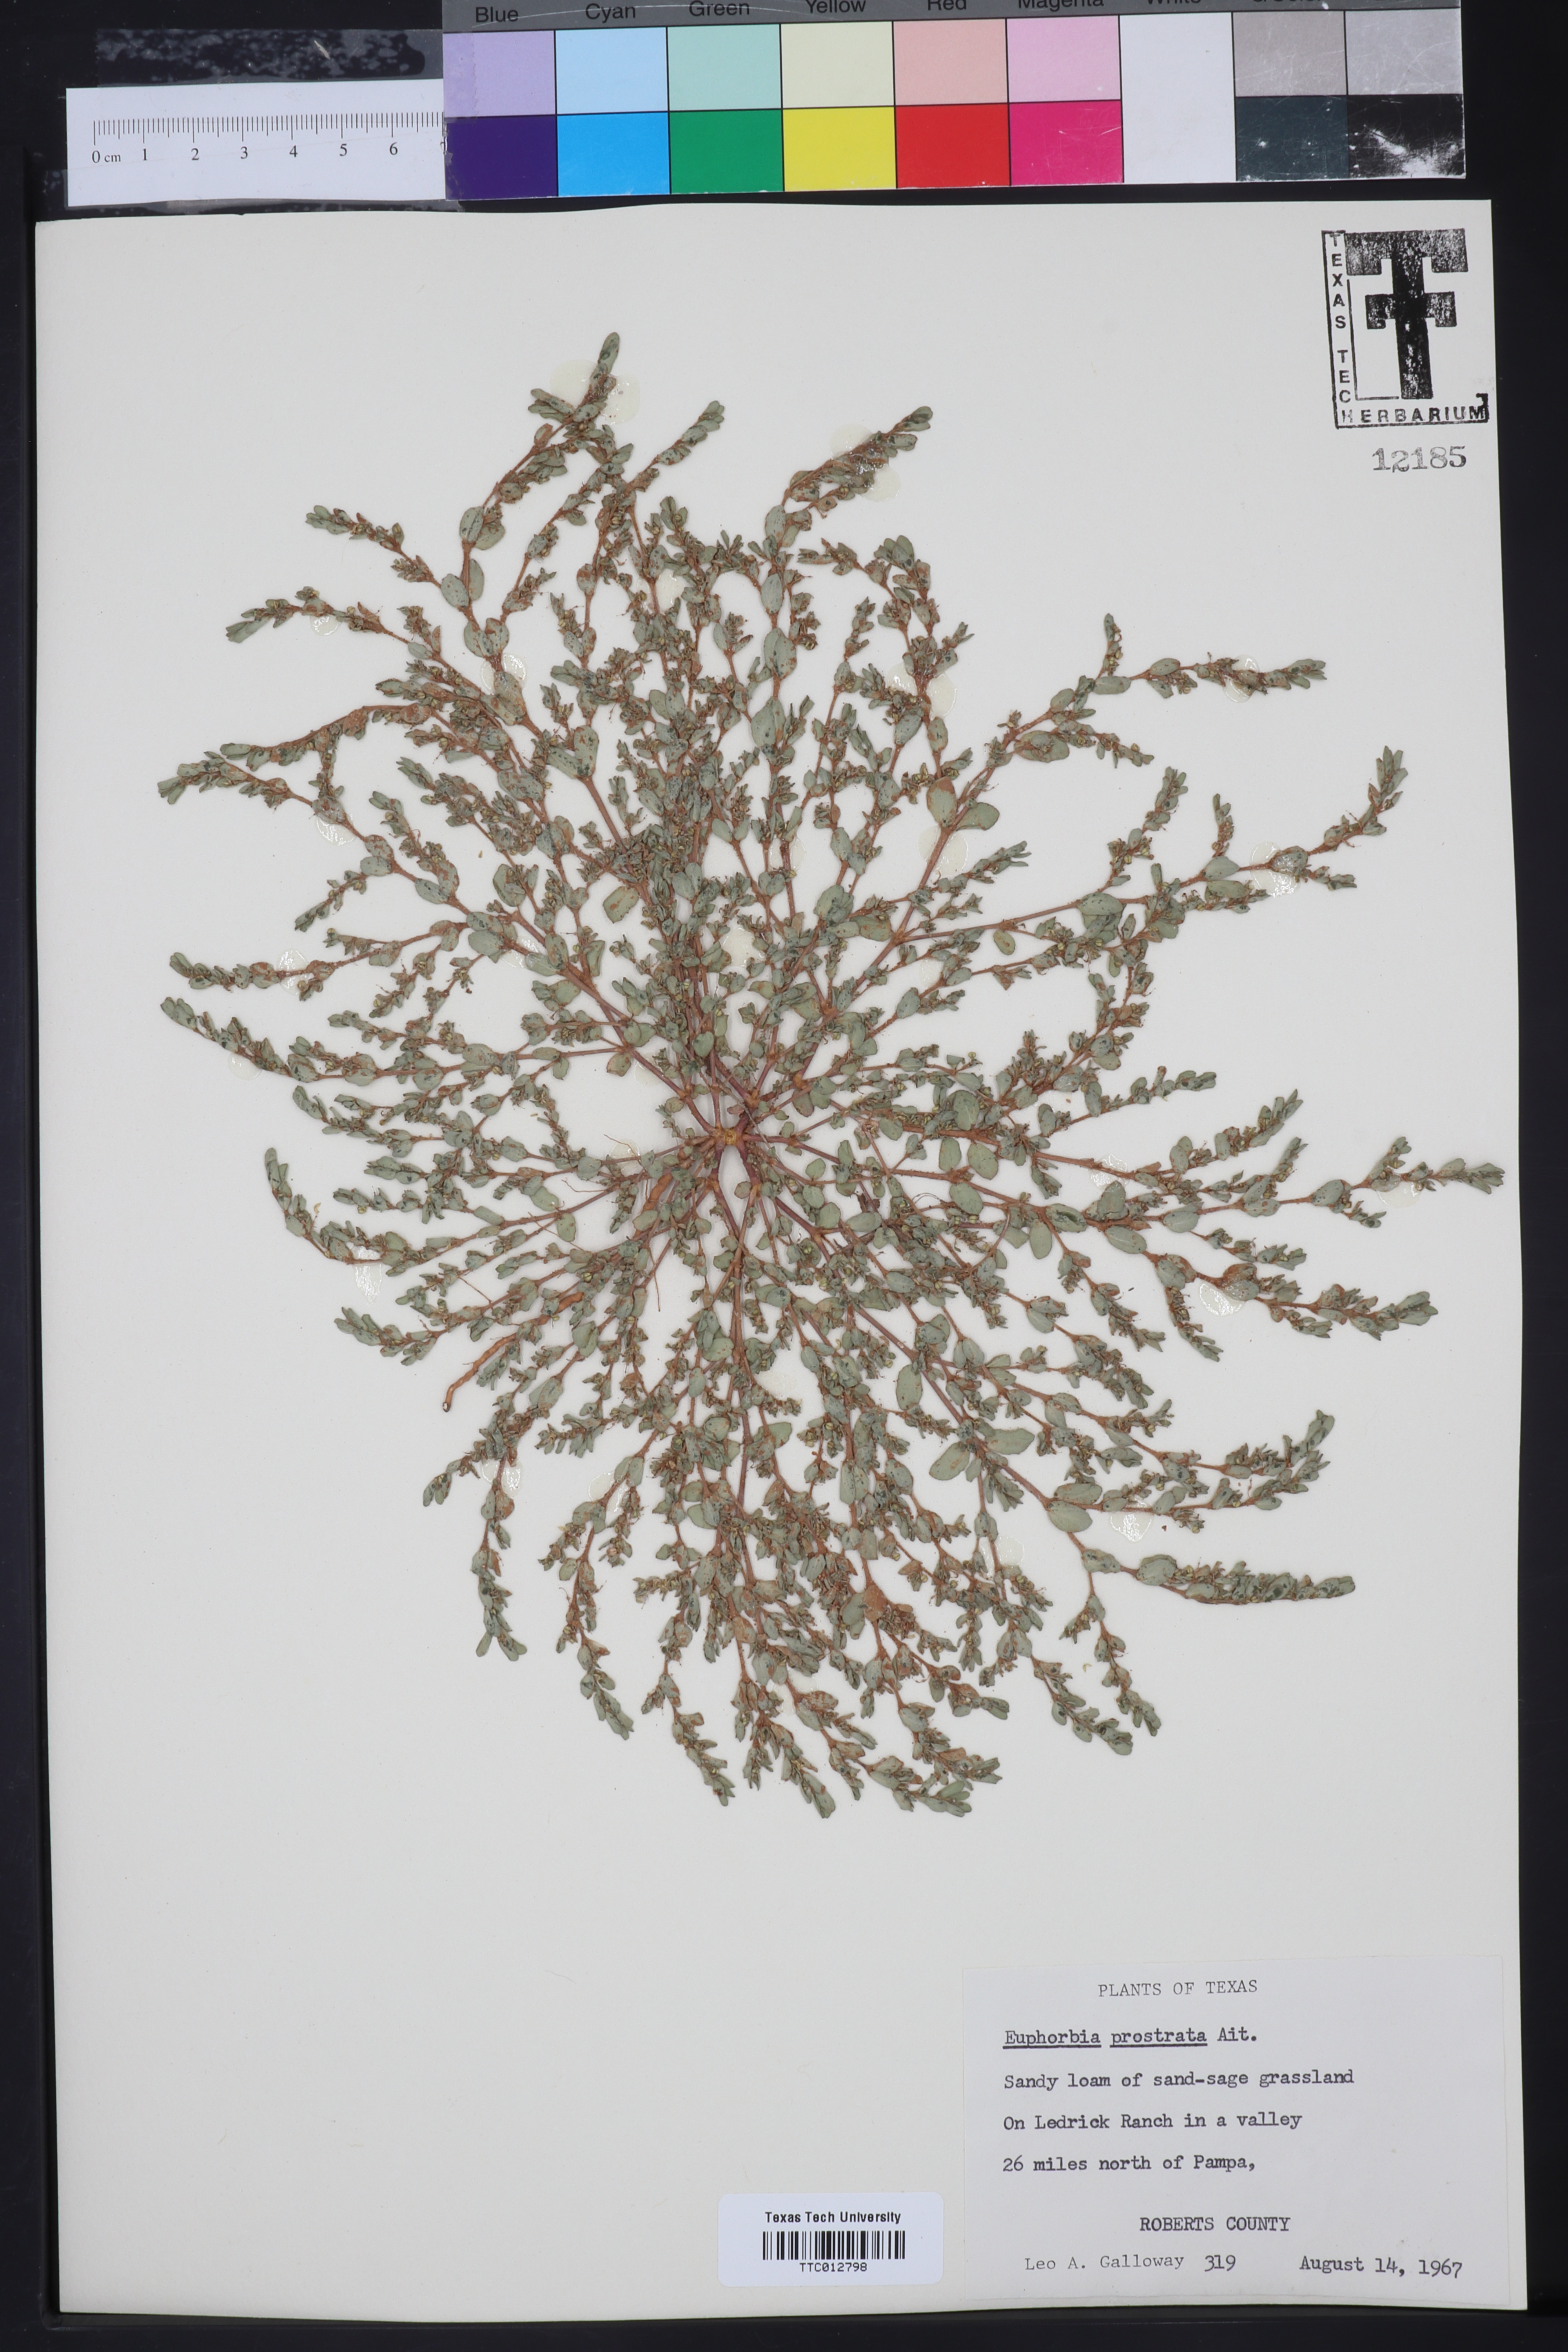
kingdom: Plantae
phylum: Tracheophyta
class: Magnoliopsida
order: Malpighiales
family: Euphorbiaceae
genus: Euphorbia
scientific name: Euphorbia prostrata
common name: Prostrate sandmat
